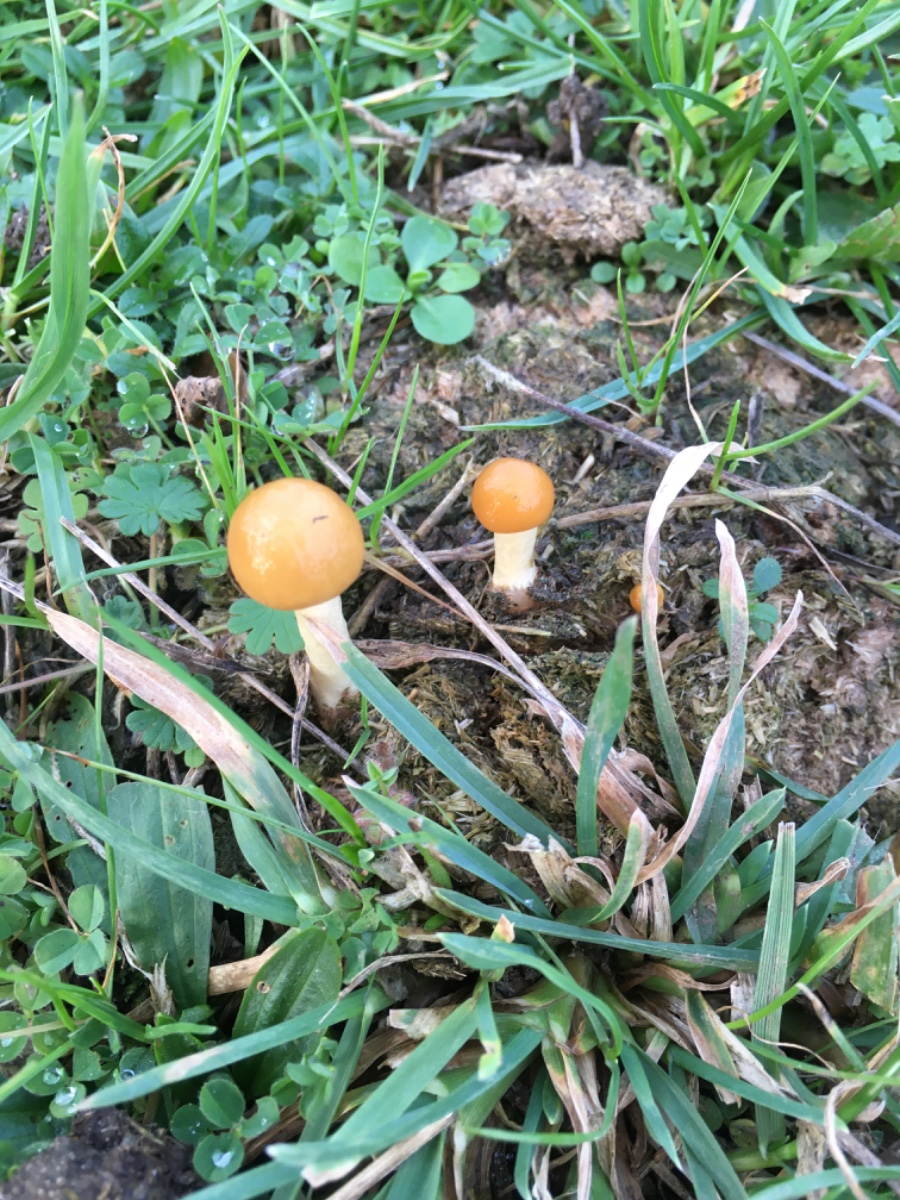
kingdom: Fungi
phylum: Basidiomycota
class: Agaricomycetes
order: Agaricales
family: Strophariaceae
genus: Protostropharia
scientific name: Protostropharia
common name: bredblad
